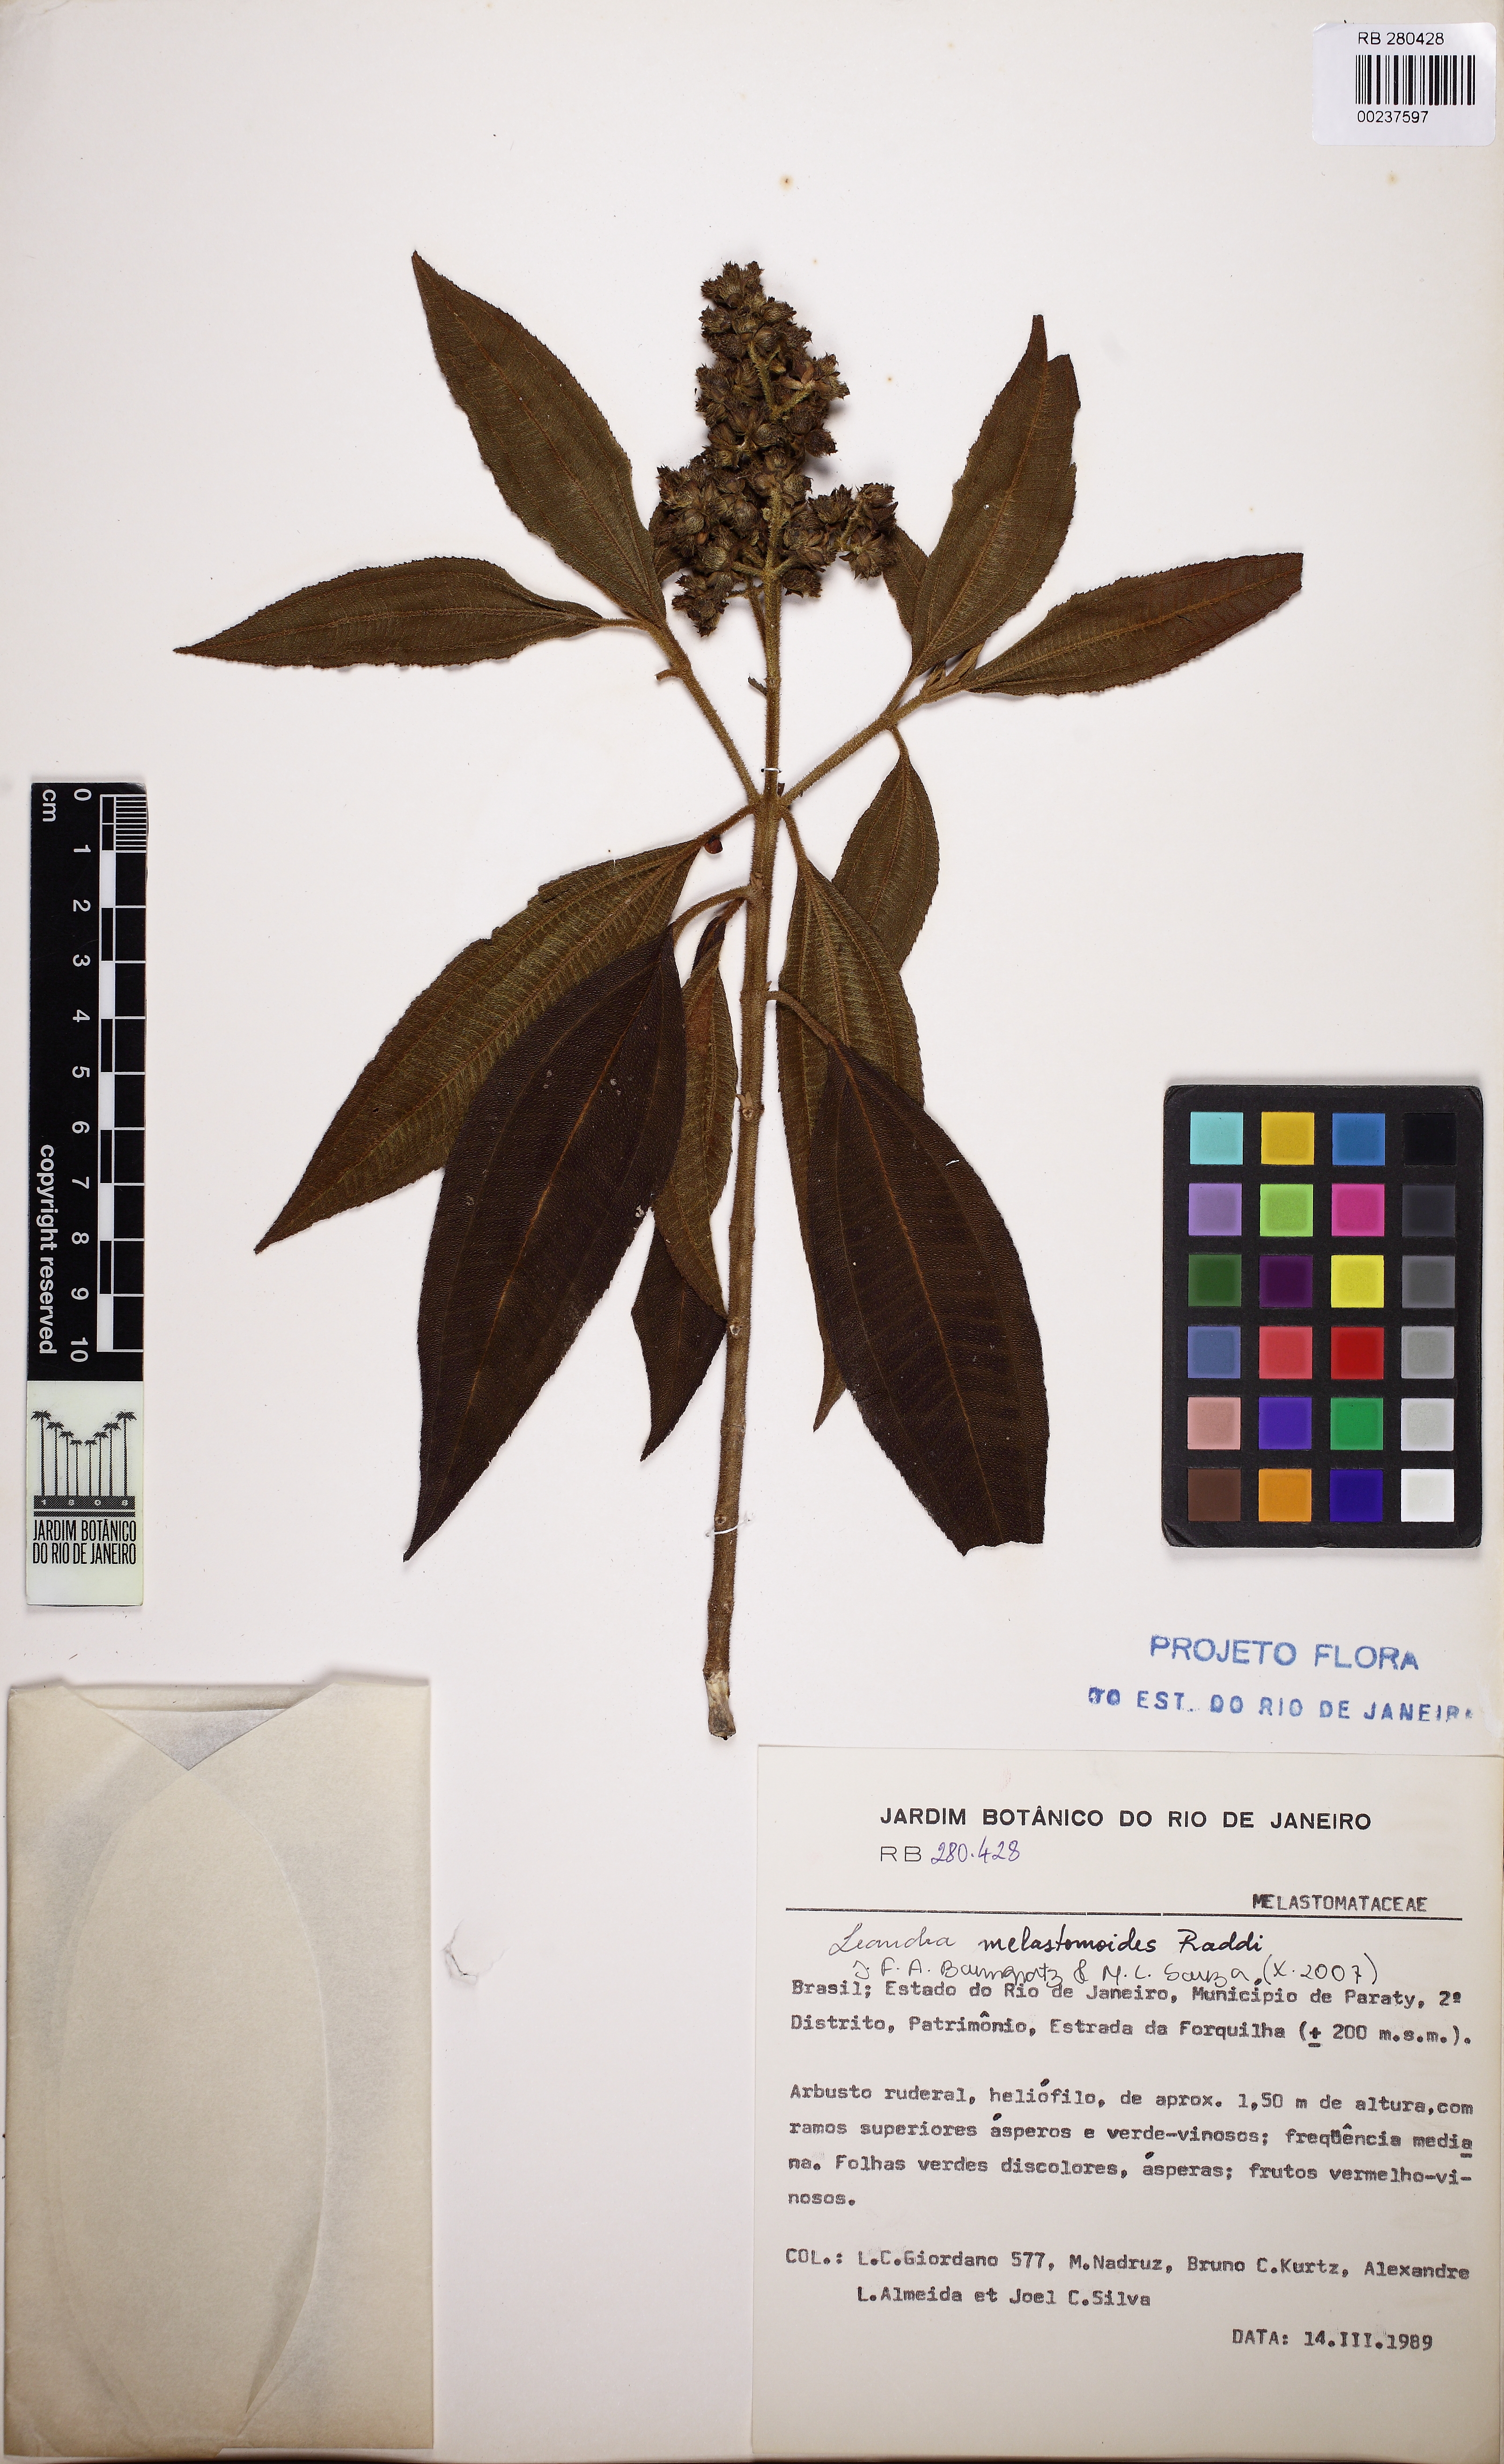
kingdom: Plantae
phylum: Tracheophyta
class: Magnoliopsida
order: Myrtales
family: Melastomataceae
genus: Miconia
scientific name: Miconia melastomoides
